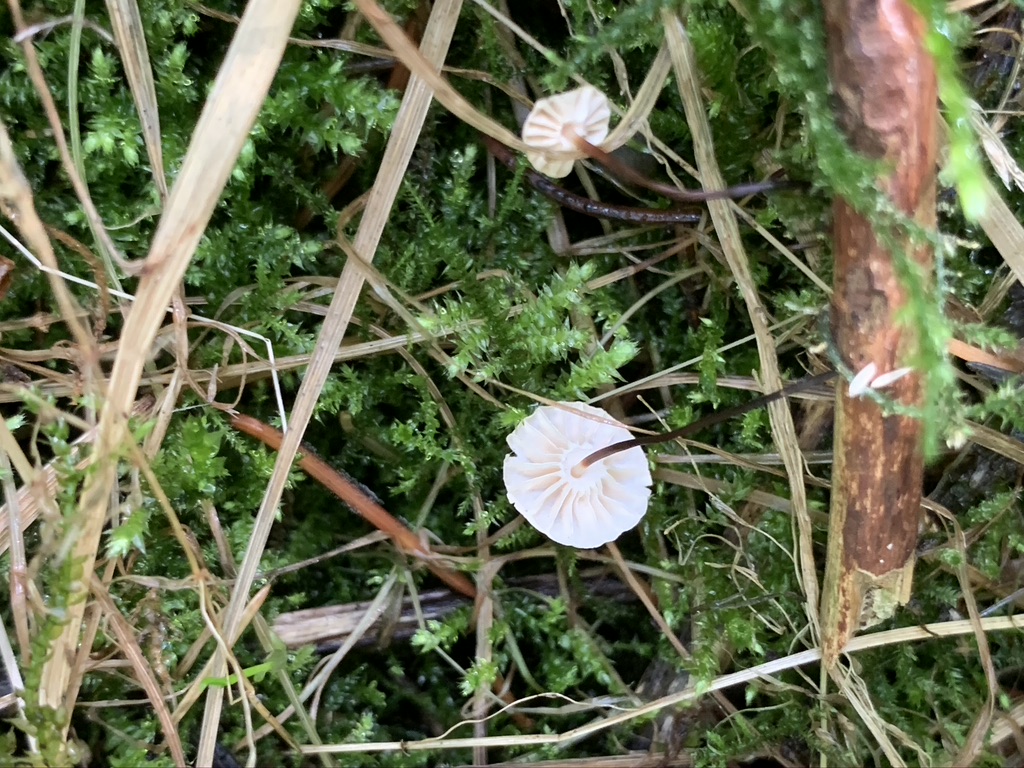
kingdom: Fungi
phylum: Basidiomycota
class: Agaricomycetes
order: Agaricales
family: Marasmiaceae
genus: Marasmius
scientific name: Marasmius rotula
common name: hjul-bruskhat
